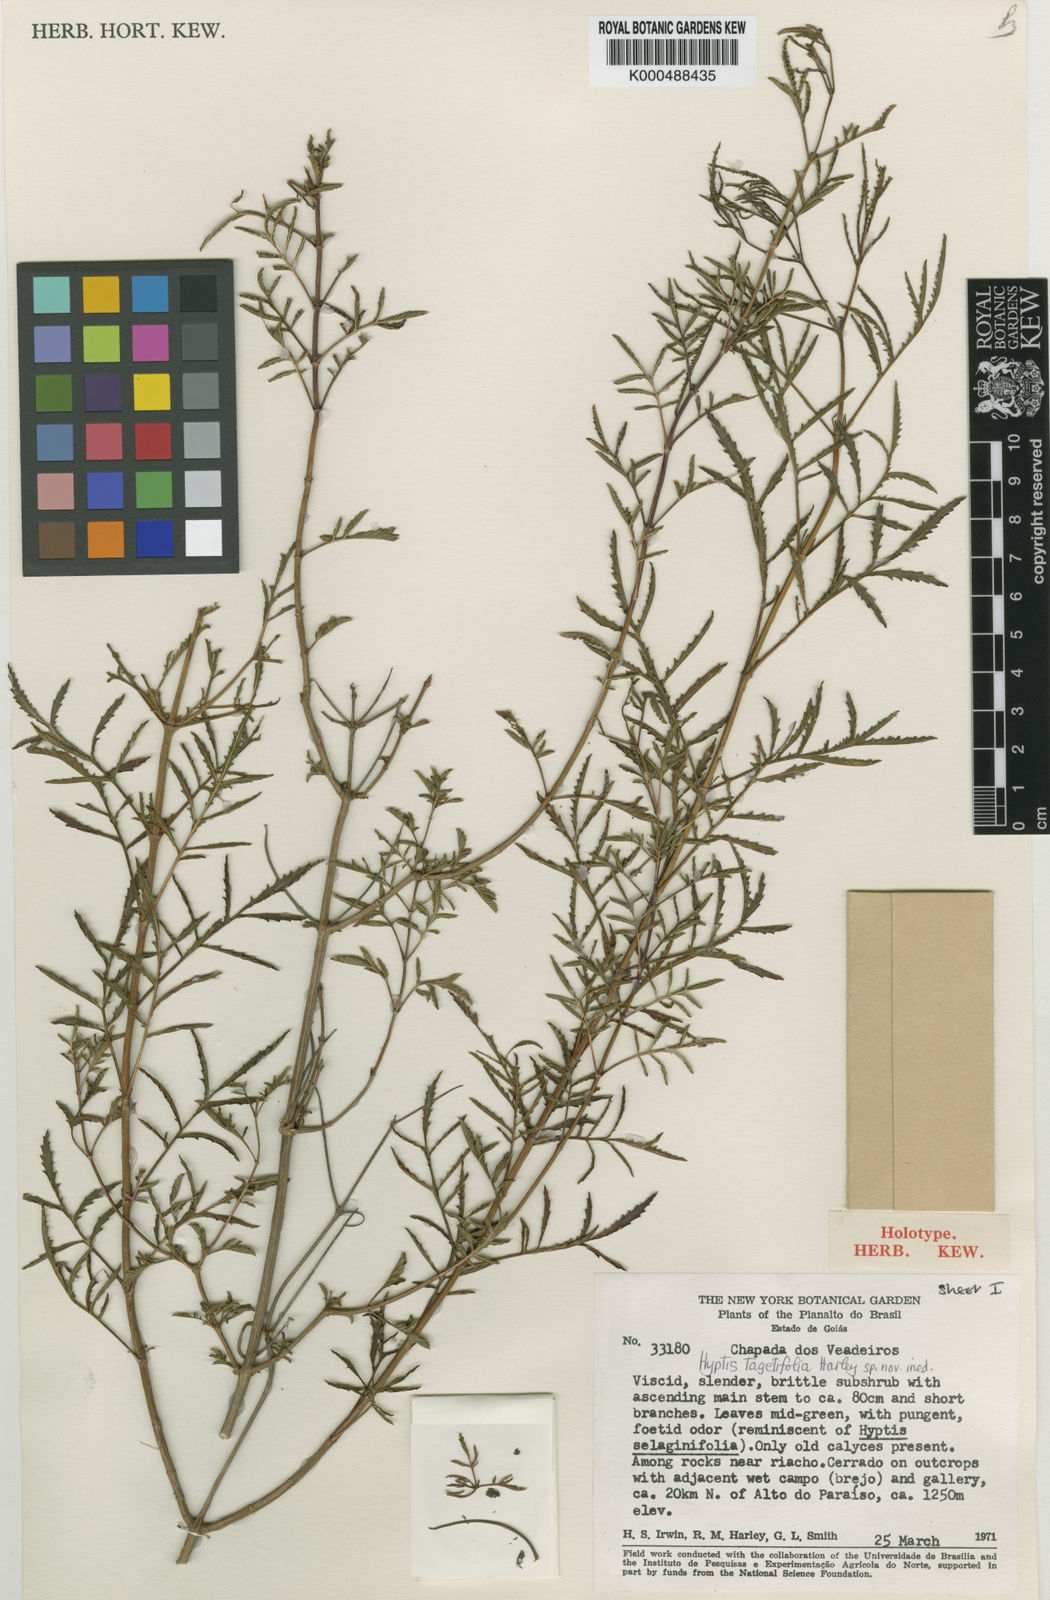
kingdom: Plantae
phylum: Tracheophyta
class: Magnoliopsida
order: Lamiales
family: Lamiaceae
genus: Cyanocephalus
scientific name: Cyanocephalus tagetifolius
